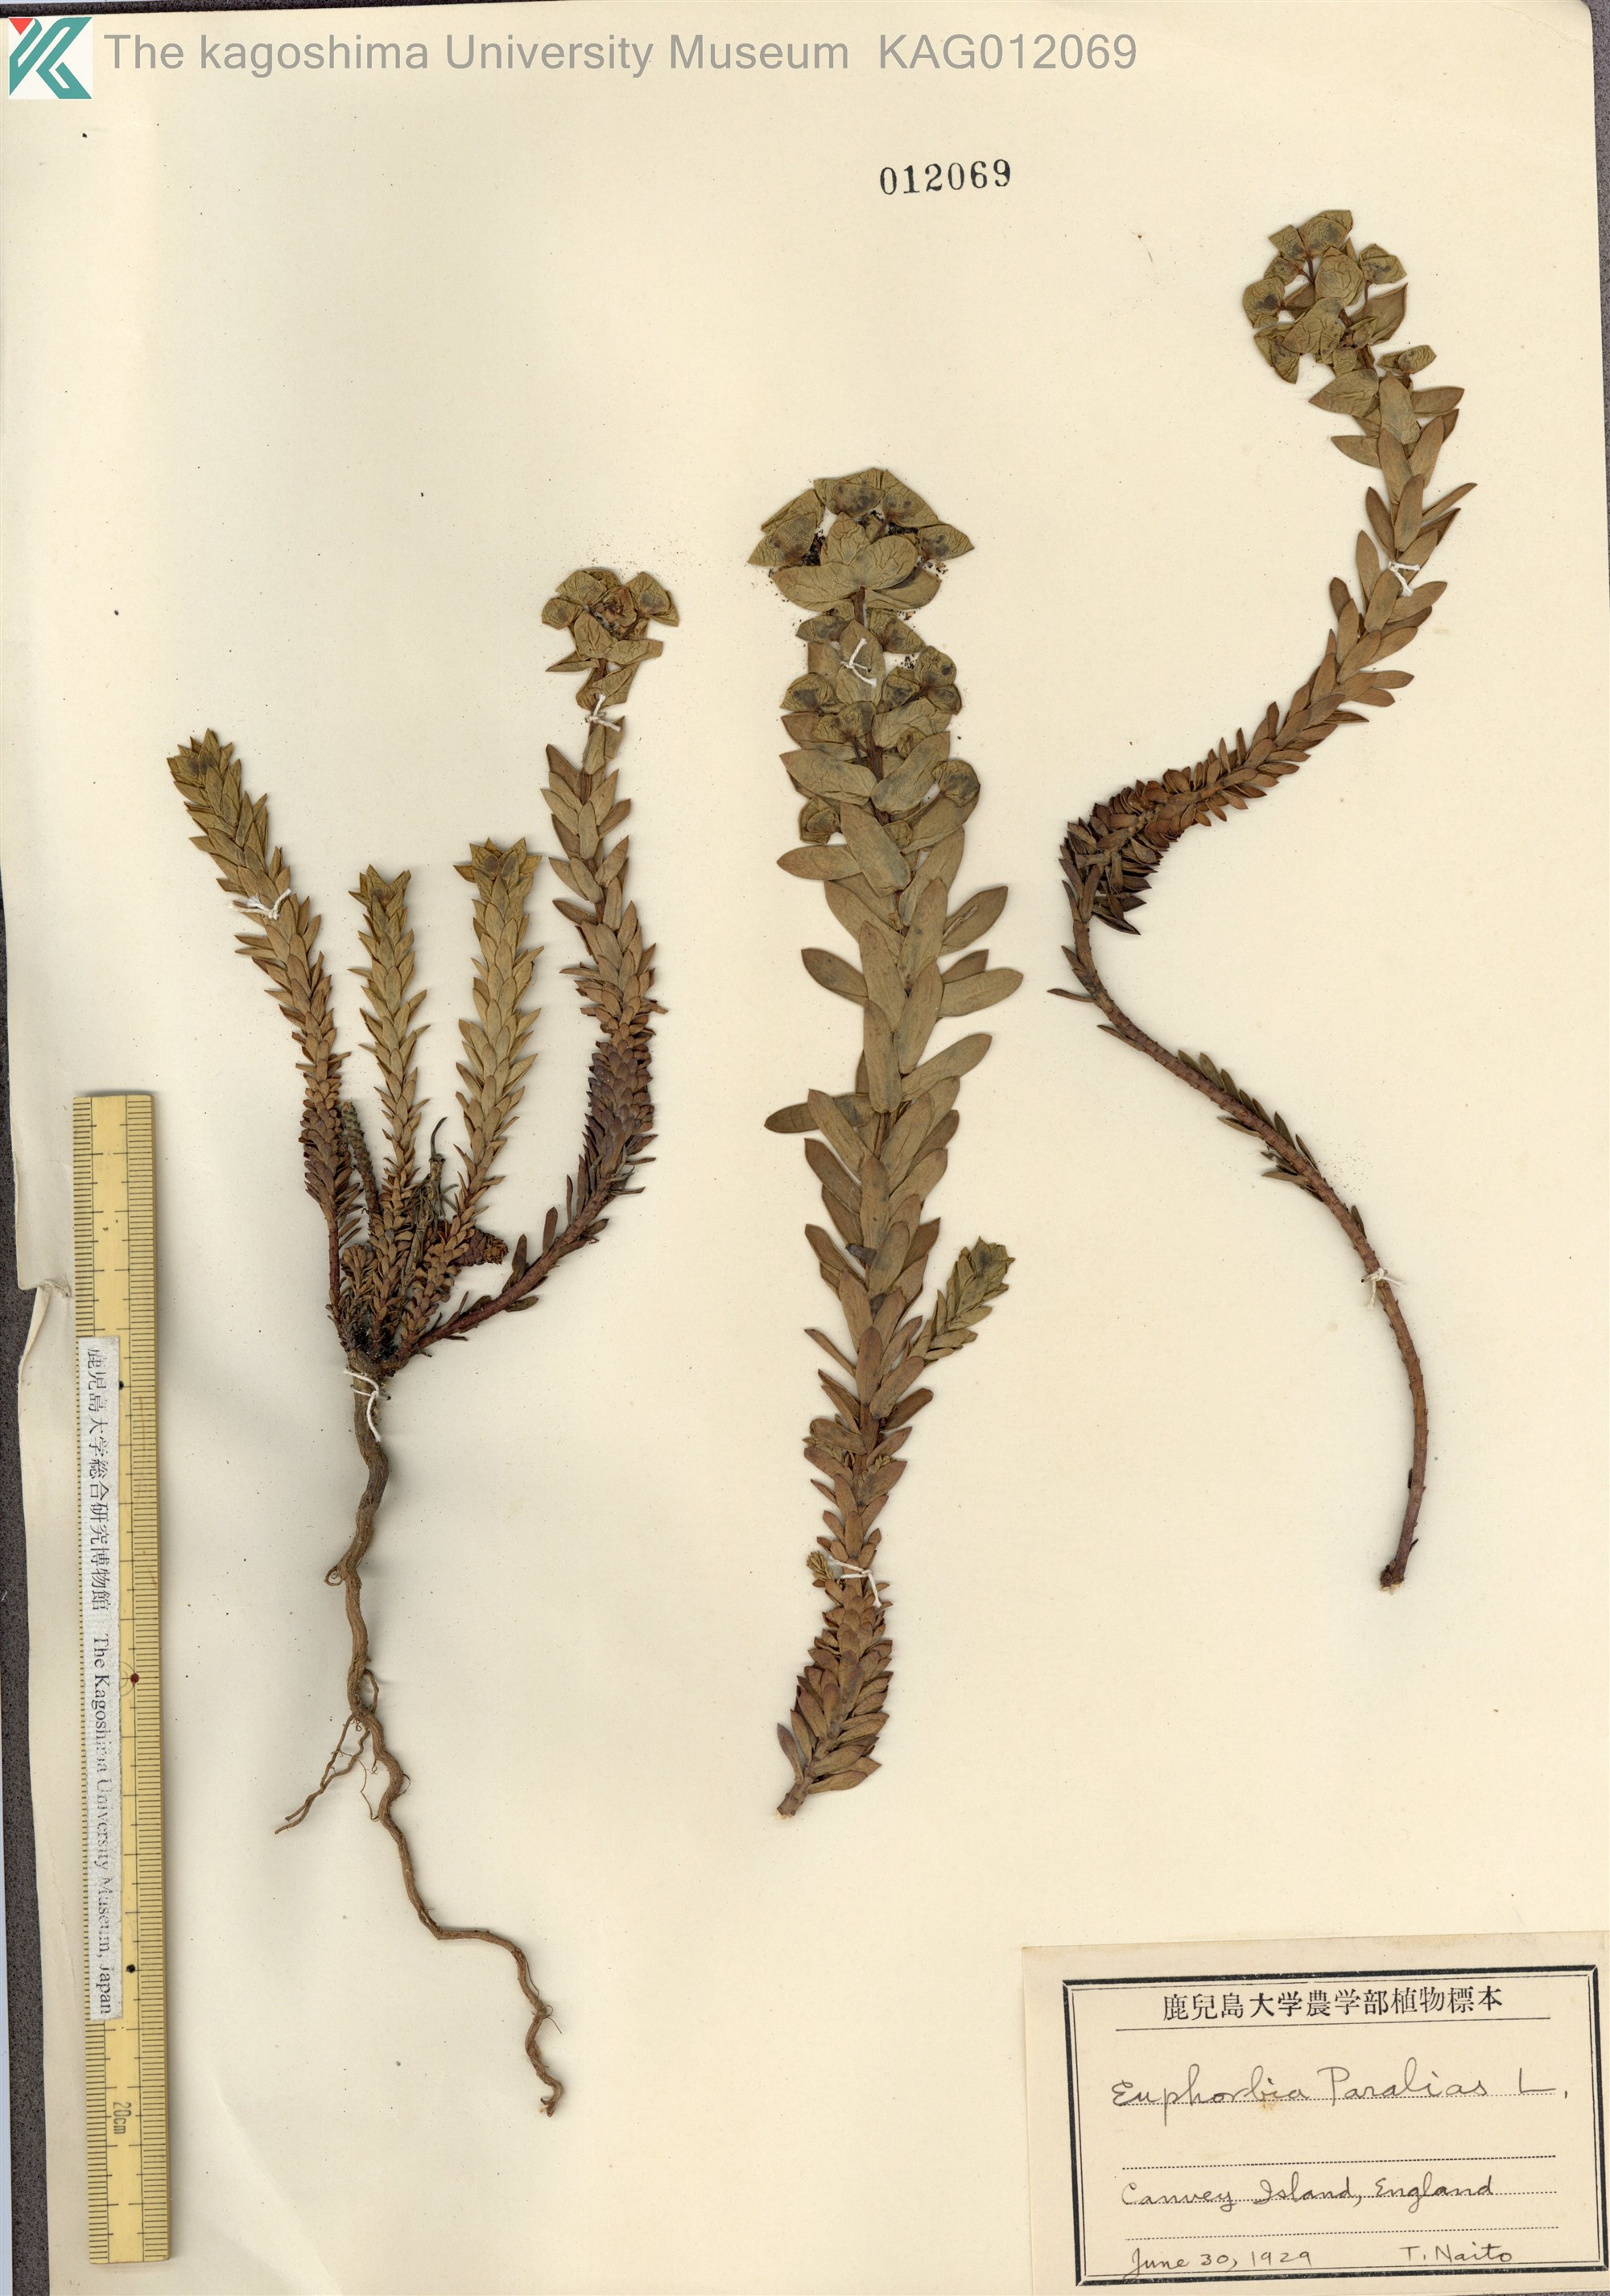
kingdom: Plantae
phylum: Tracheophyta
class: Magnoliopsida
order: Malpighiales
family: Euphorbiaceae
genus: Euphorbia
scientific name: Euphorbia paralias
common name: Sea spurge
